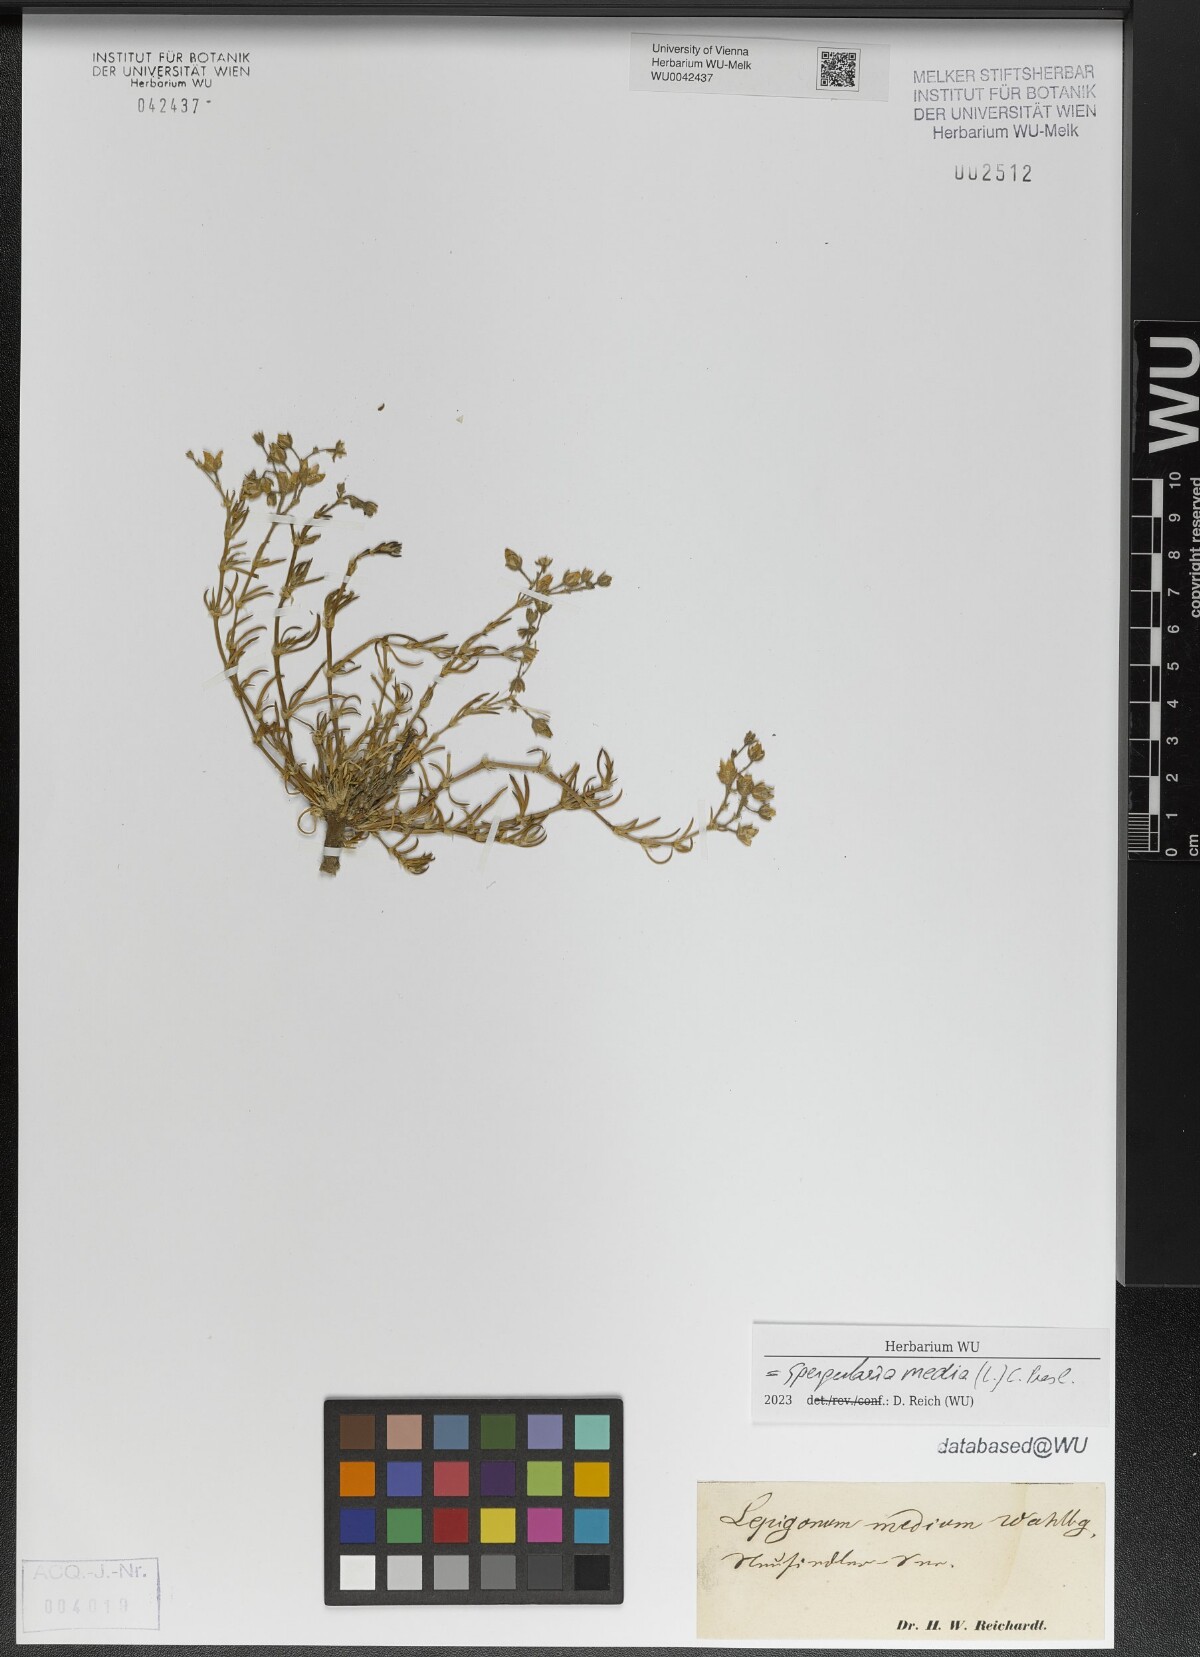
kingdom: Plantae
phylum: Tracheophyta
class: Magnoliopsida
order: Caryophyllales
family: Caryophyllaceae
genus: Spergularia
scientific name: Spergularia media
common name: Greater sea-spurrey
